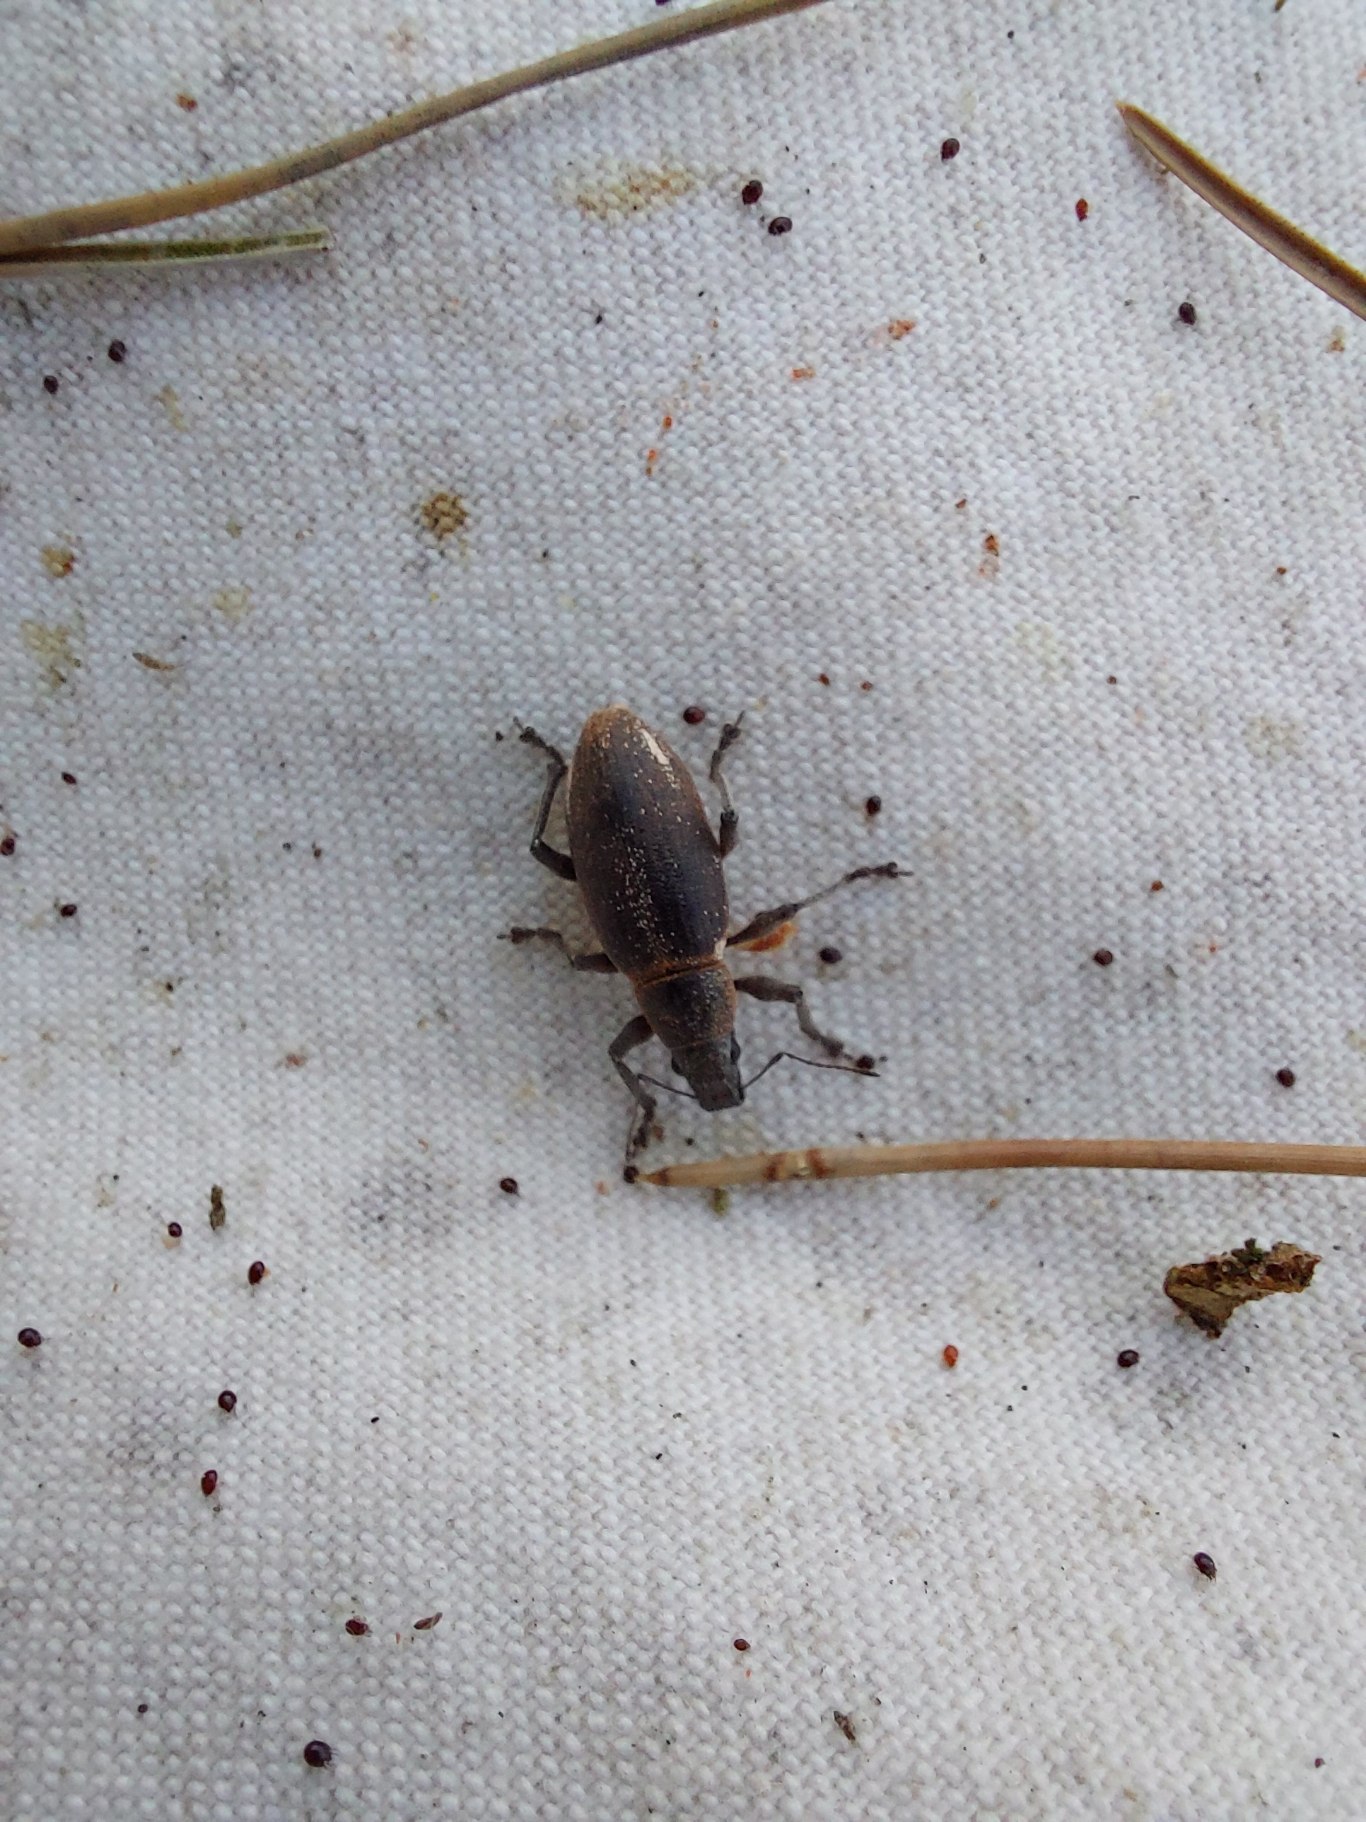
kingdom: Animalia
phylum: Arthropoda
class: Insecta
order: Coleoptera
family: Curculionidae
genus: Brachyderes
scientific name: Brachyderes lusitanicus
